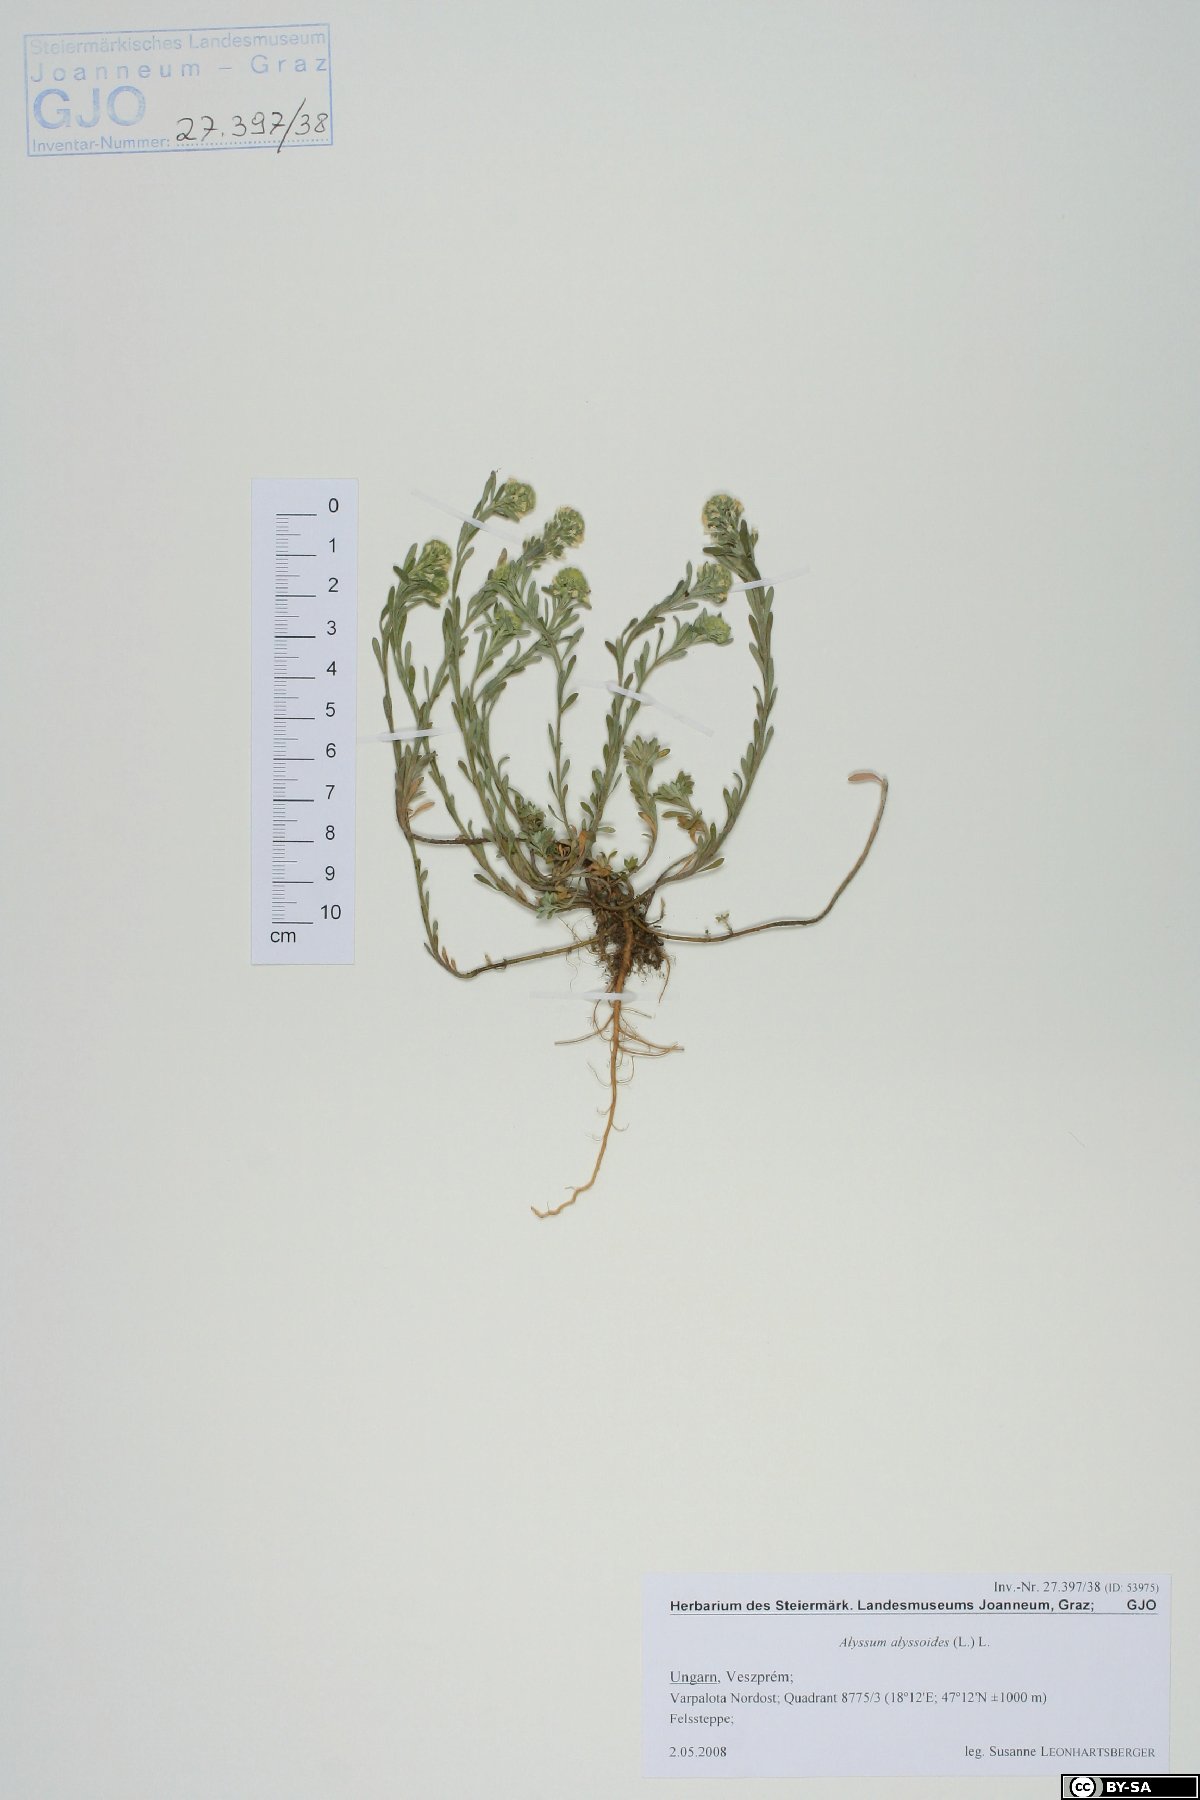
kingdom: Plantae
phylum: Tracheophyta
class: Magnoliopsida
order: Brassicales
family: Brassicaceae
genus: Alyssum
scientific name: Alyssum alyssoides
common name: Small alison
